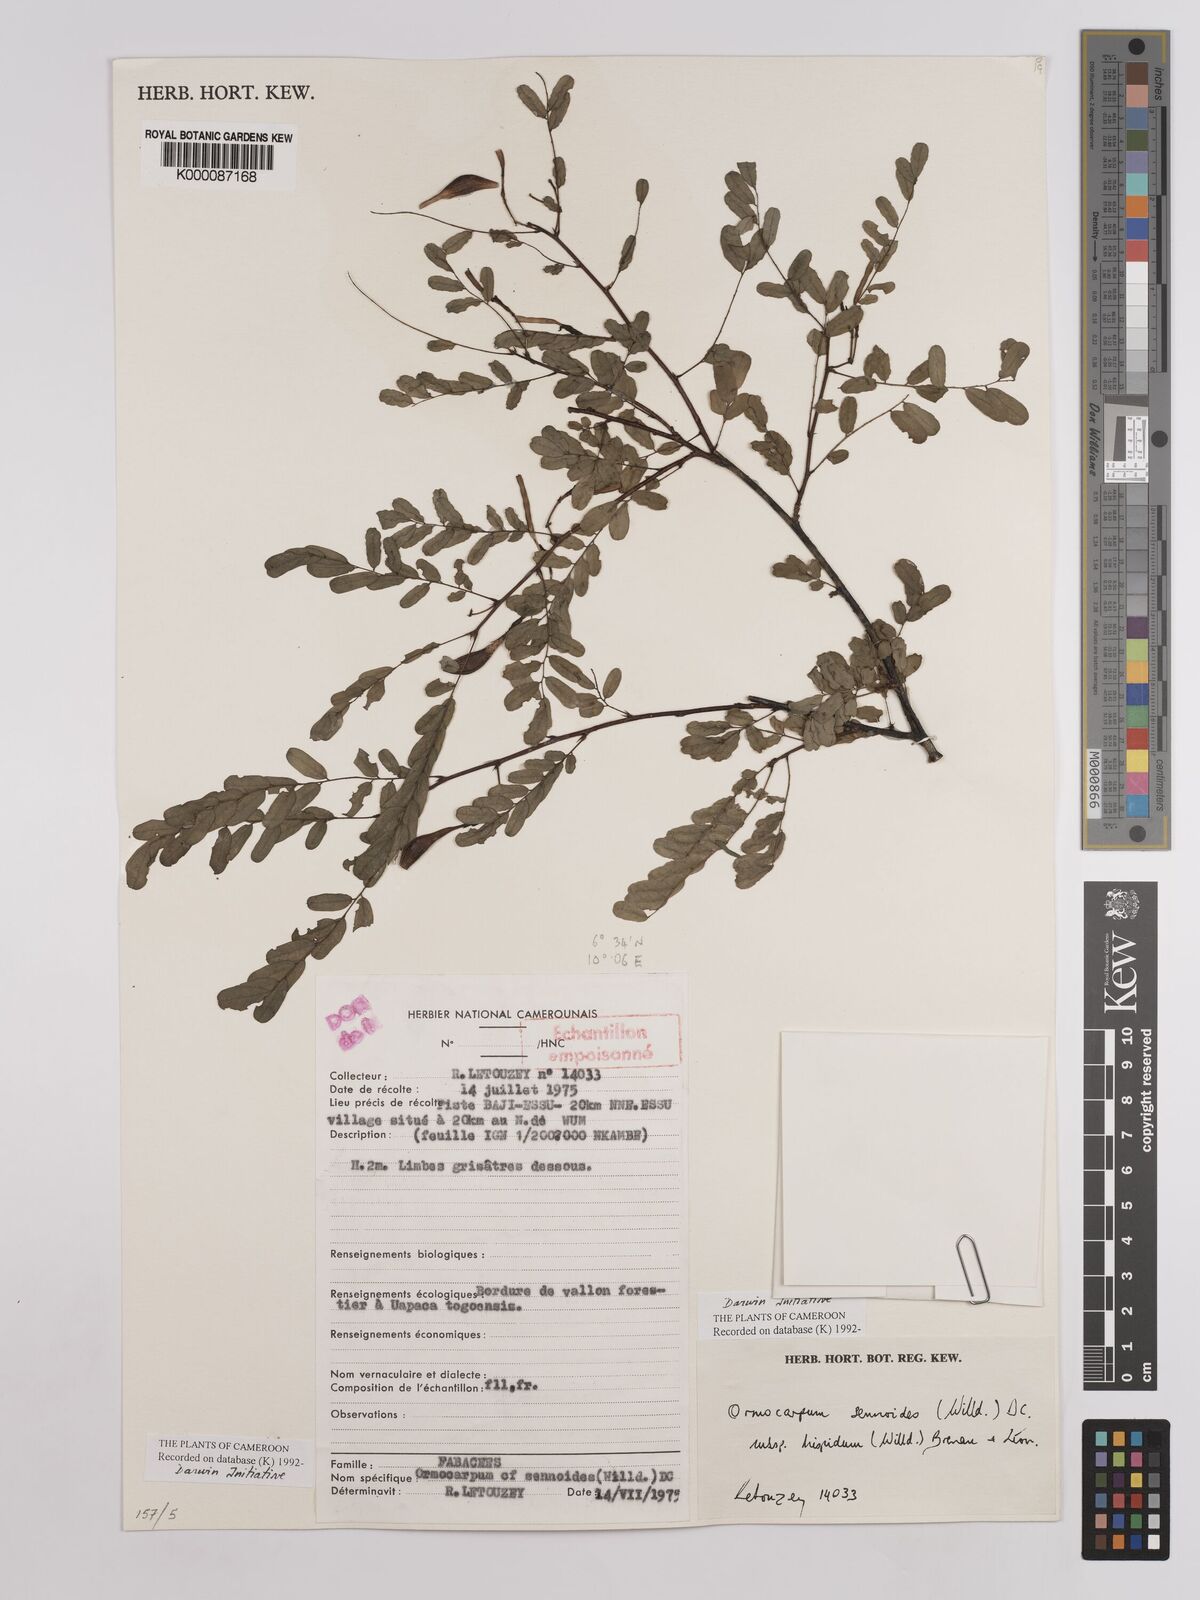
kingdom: Plantae
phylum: Tracheophyta
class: Magnoliopsida
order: Fabales
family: Fabaceae
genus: Ormocarpum
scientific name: Ormocarpum sennoides
